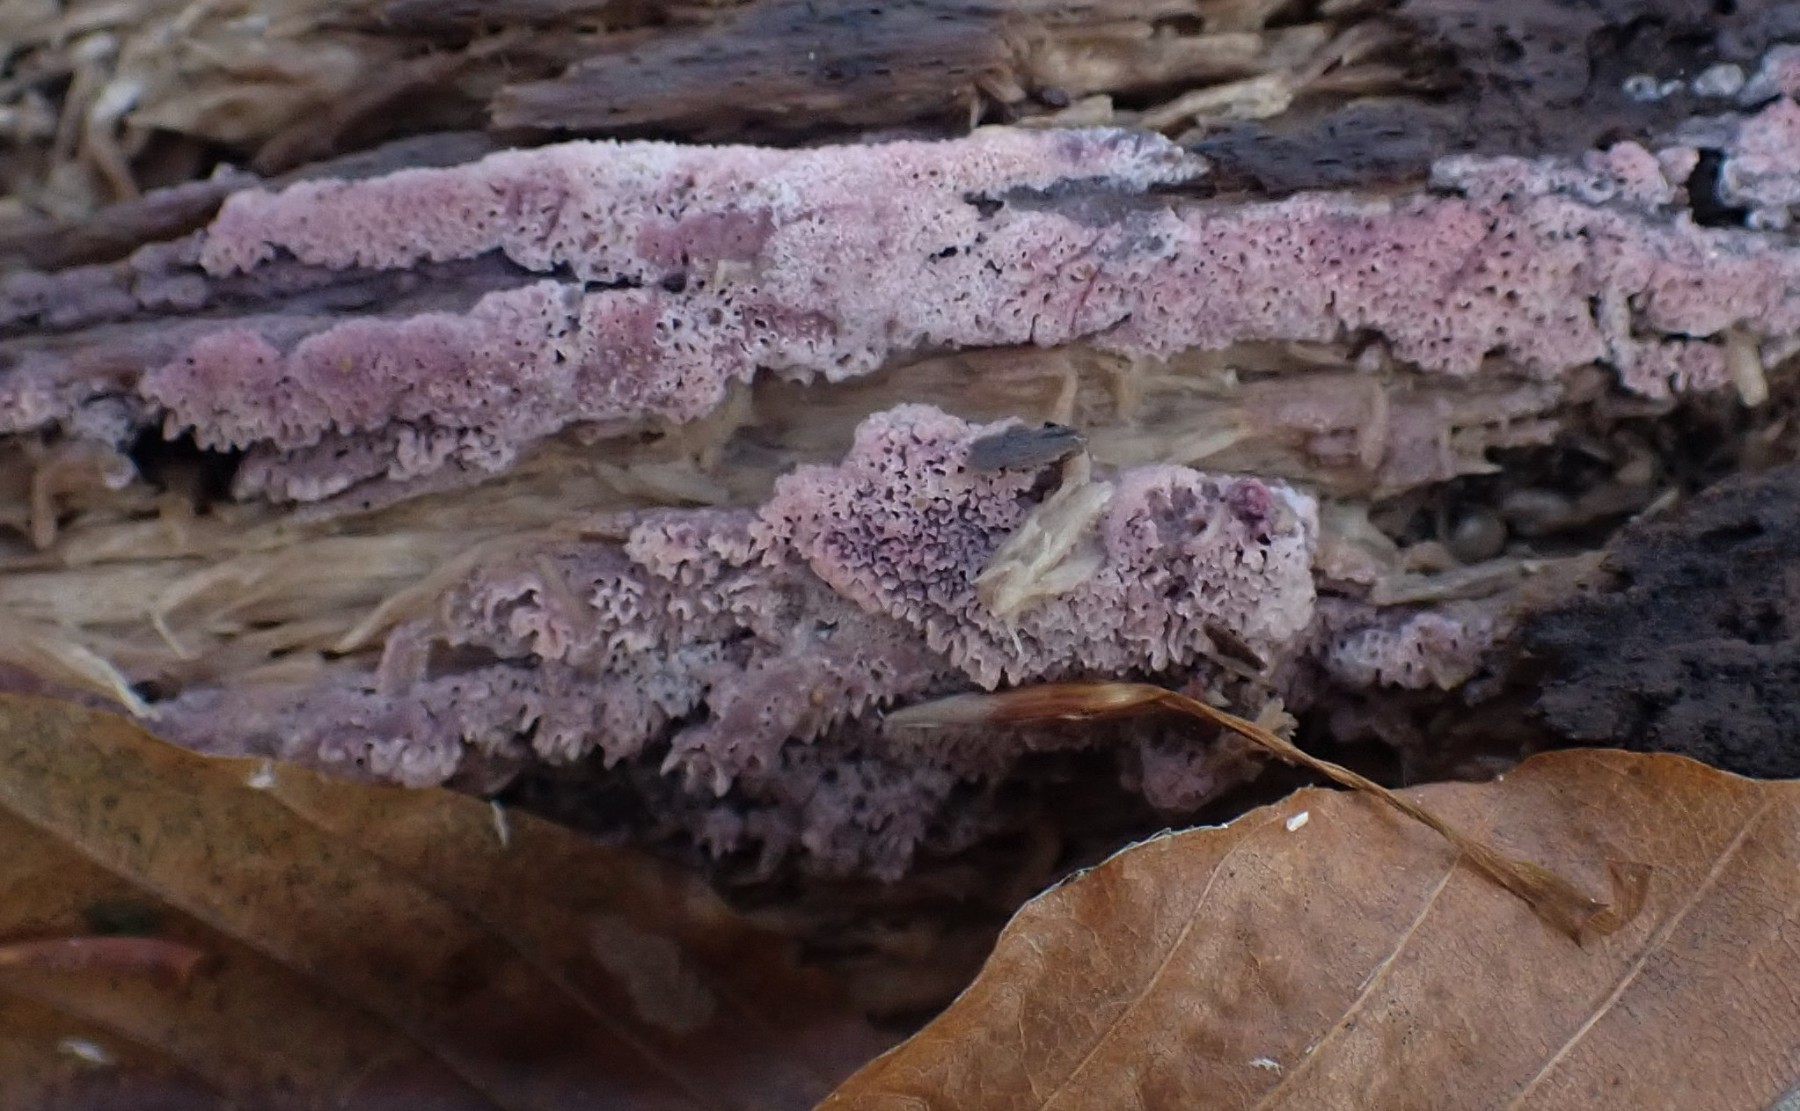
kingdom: Fungi
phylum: Basidiomycota
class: Agaricomycetes
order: Polyporales
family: Irpicaceae
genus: Ceriporia
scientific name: Ceriporia excelsa
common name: lilla voksporesvamp
